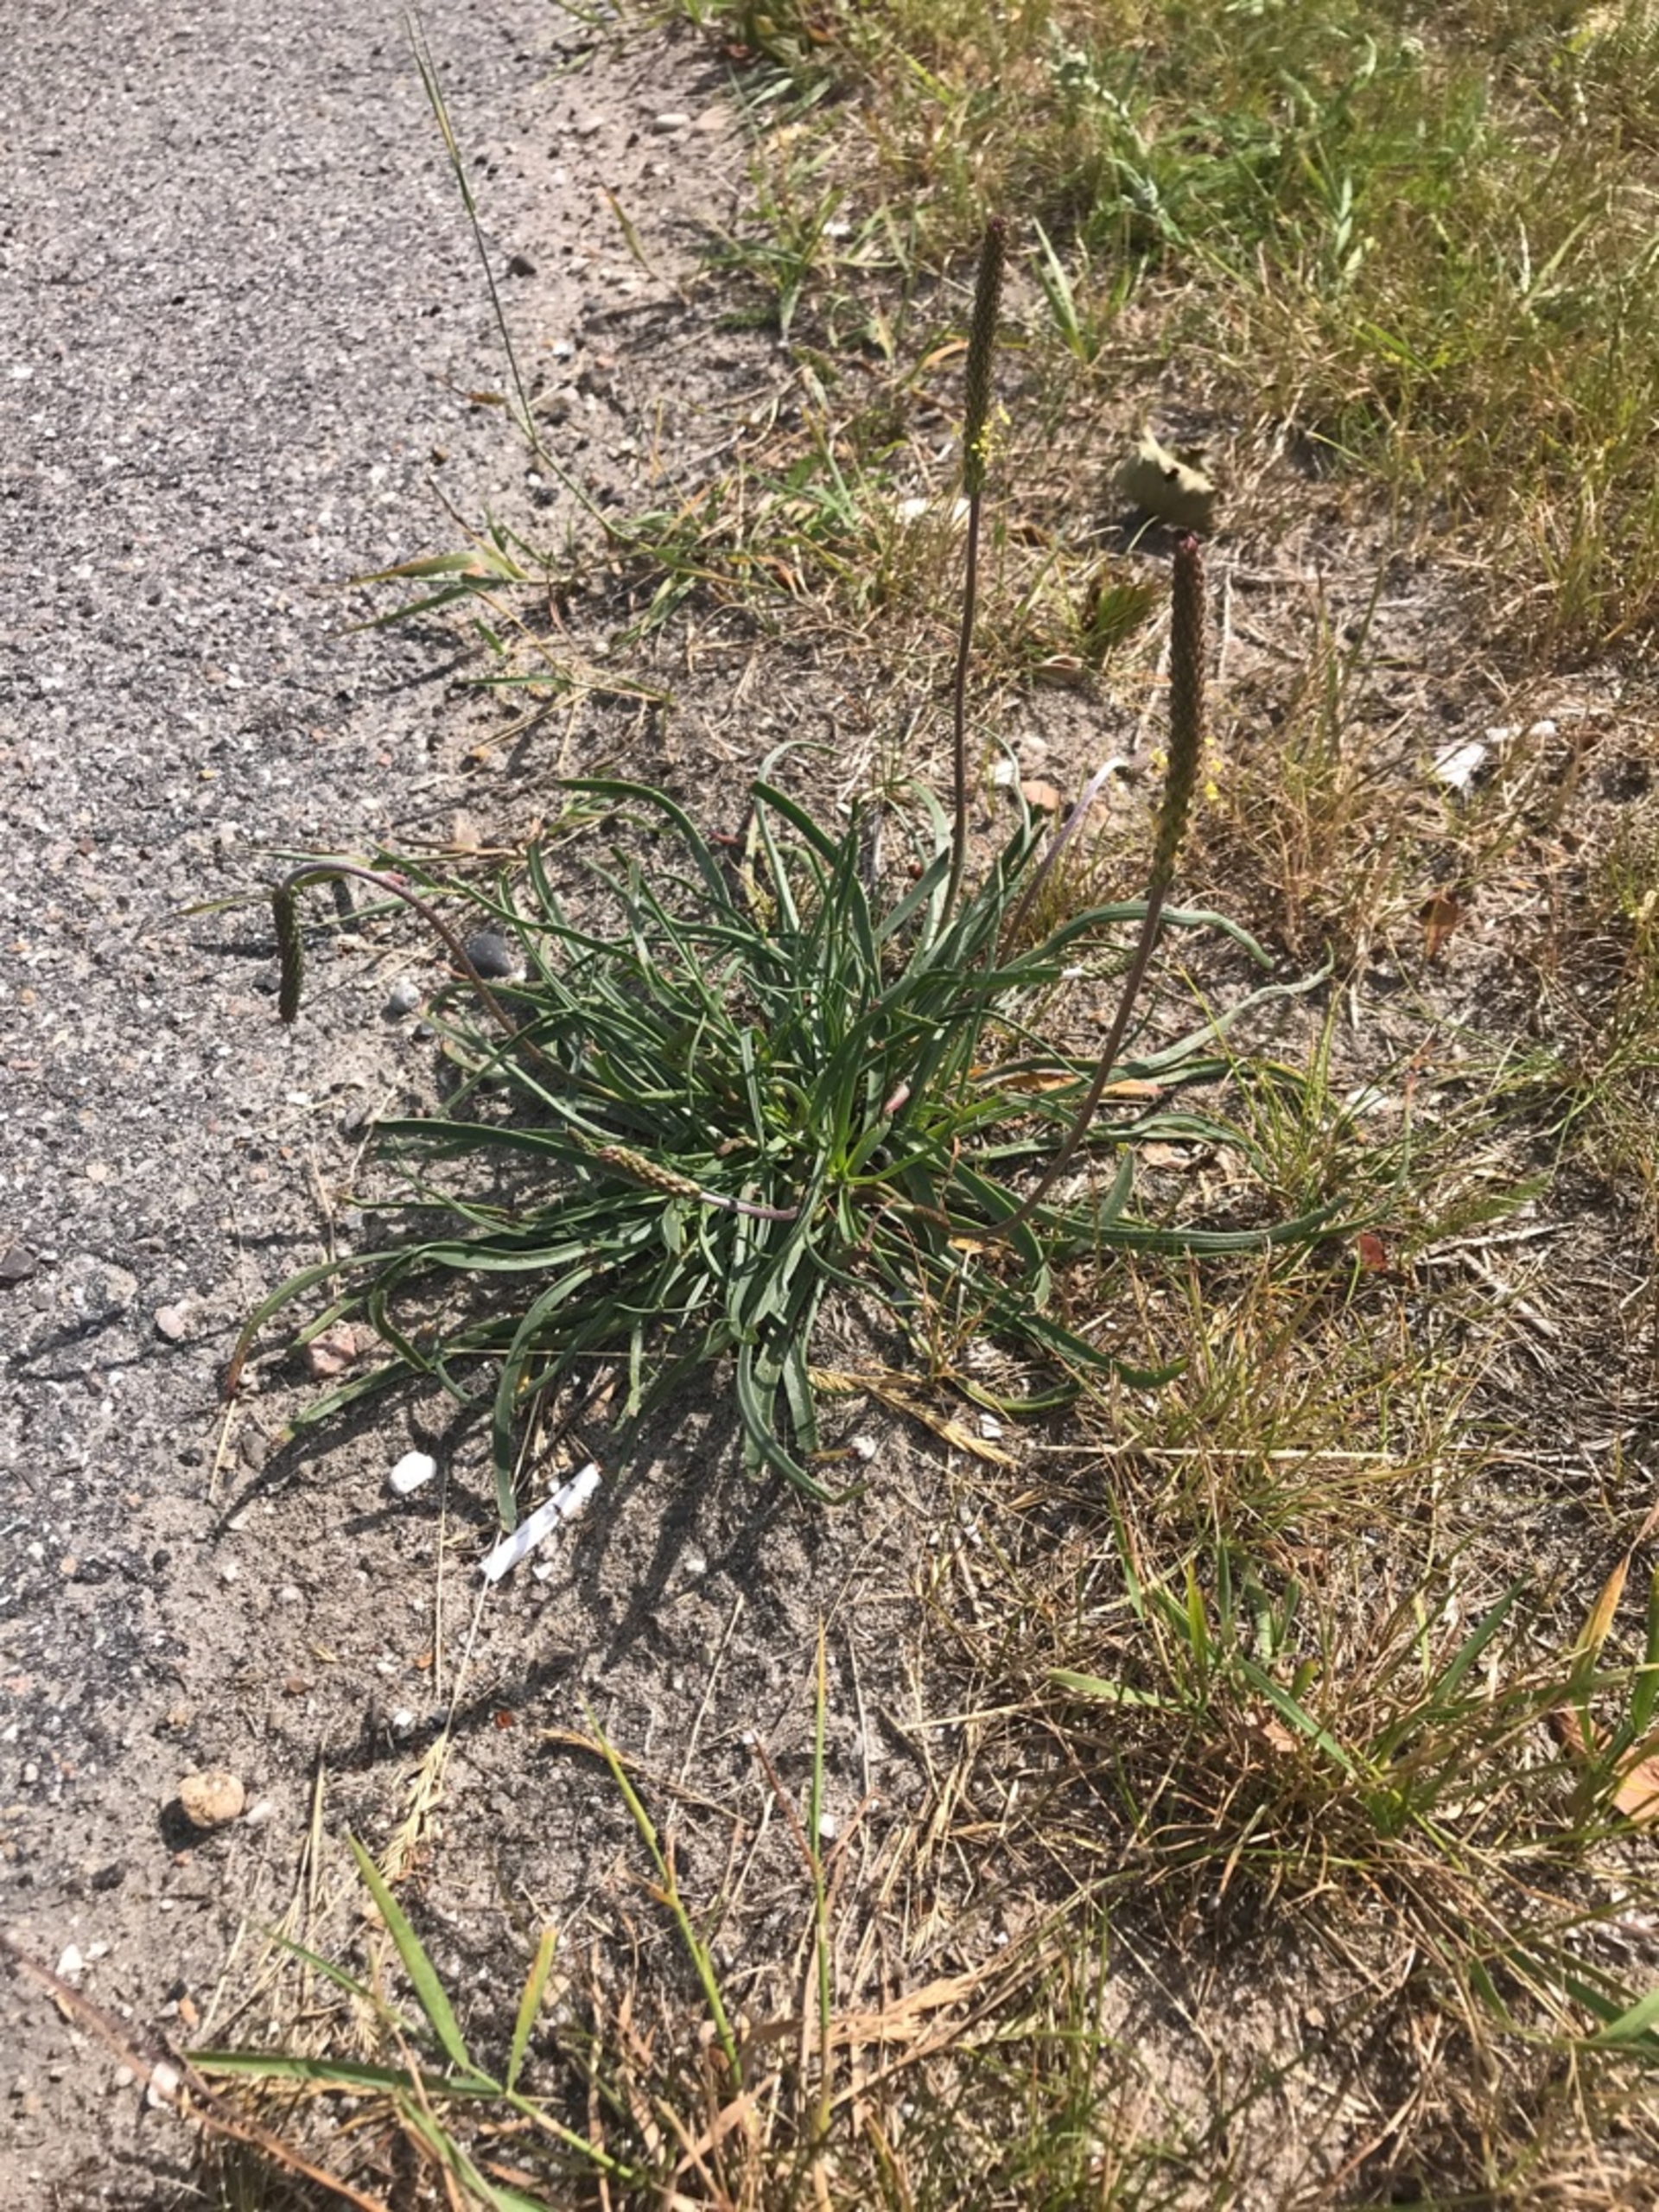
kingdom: Plantae
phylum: Tracheophyta
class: Magnoliopsida
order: Lamiales
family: Plantaginaceae
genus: Plantago
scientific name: Plantago maritima
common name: Strand-vejbred
